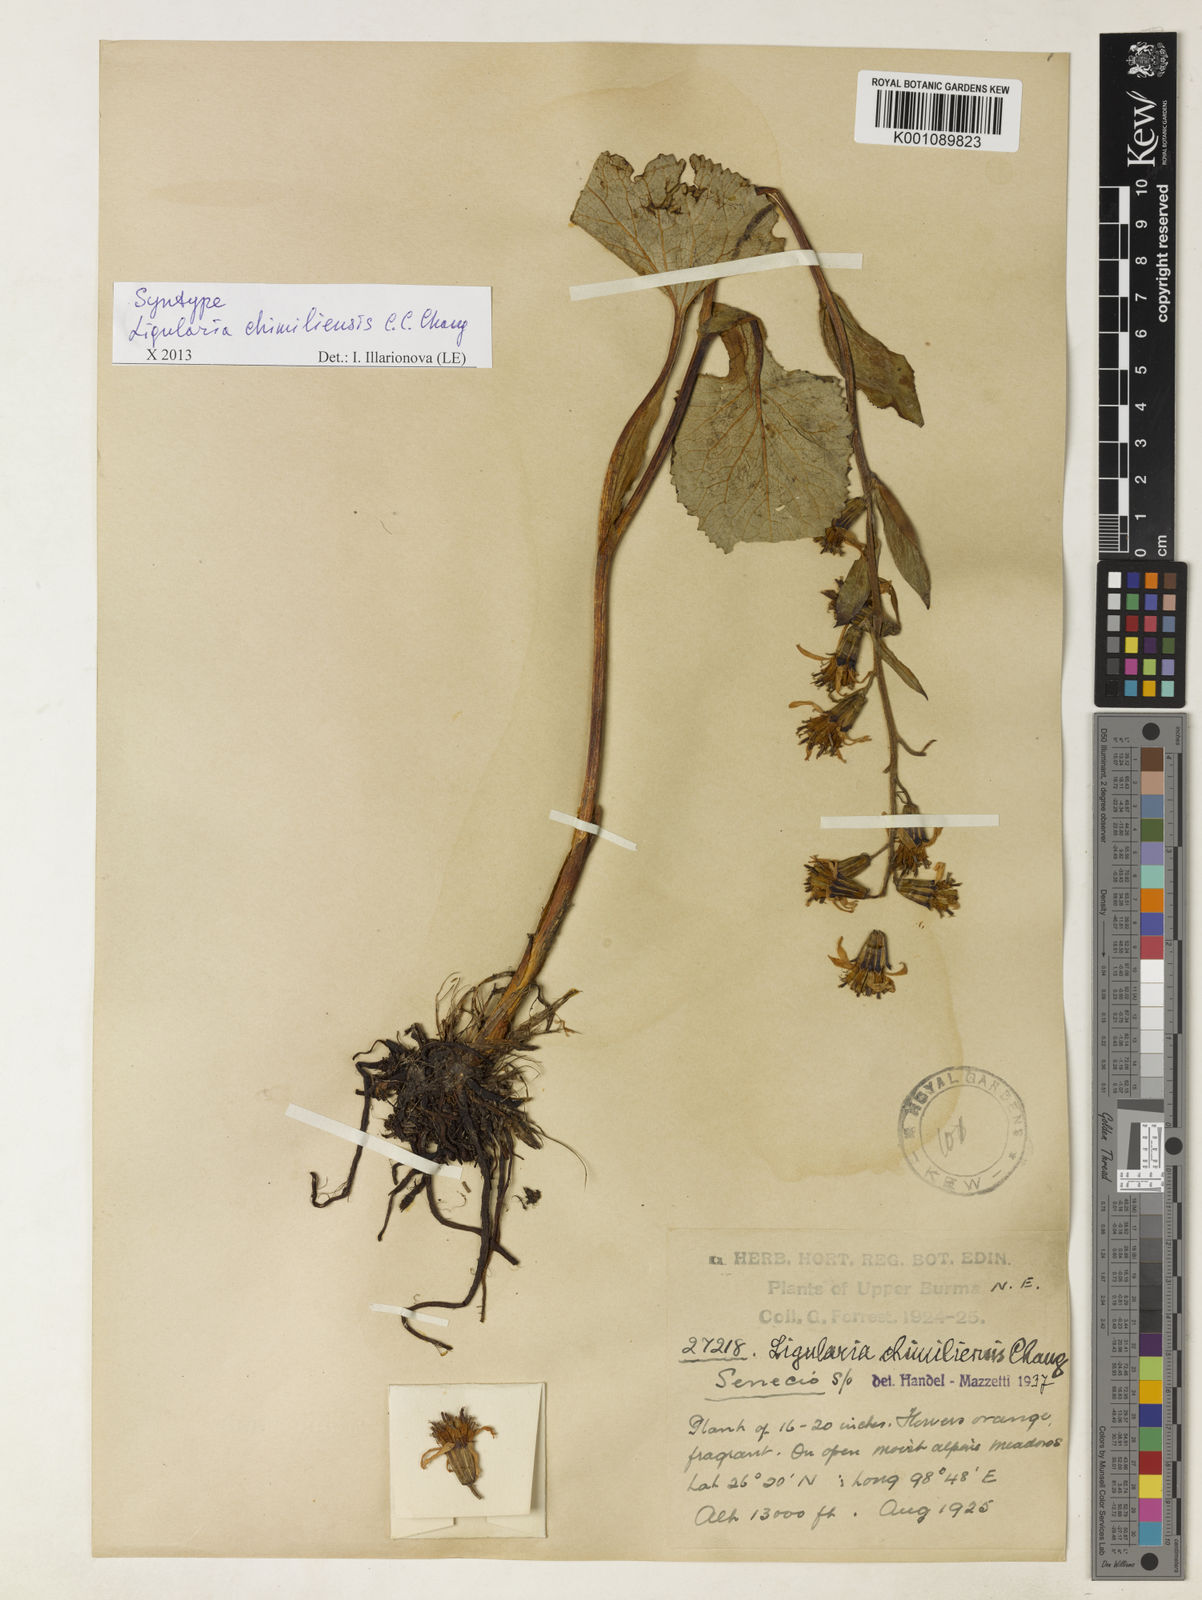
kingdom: Plantae
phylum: Tracheophyta
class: Magnoliopsida
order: Asterales
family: Asteraceae
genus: Ligularia
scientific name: Ligularia chimiliensis
